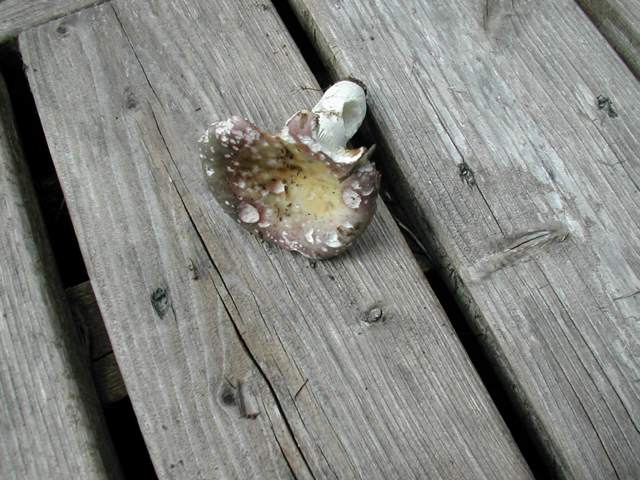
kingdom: Fungi
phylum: Basidiomycota
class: Agaricomycetes
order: Russulales
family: Russulaceae
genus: Russula
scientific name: Russula ionochlora
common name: violetgrøn skørhat
